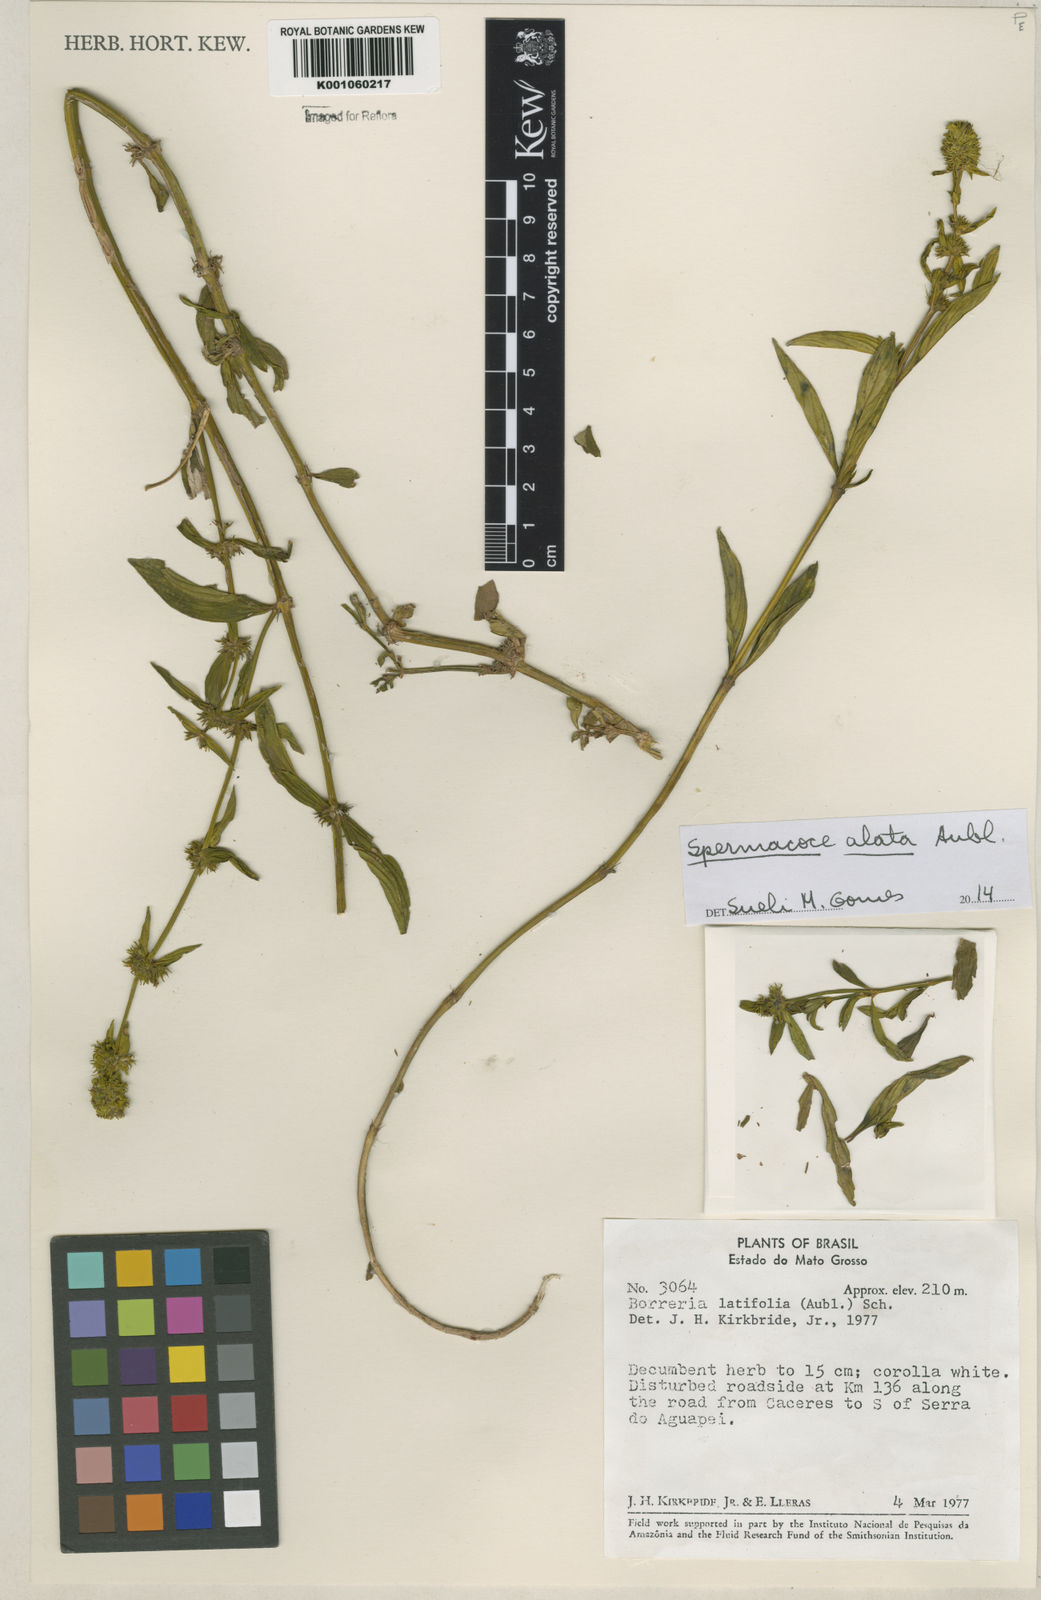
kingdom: Plantae
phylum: Tracheophyta
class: Magnoliopsida
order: Gentianales
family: Rubiaceae
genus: Spermacoce
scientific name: Spermacoce
